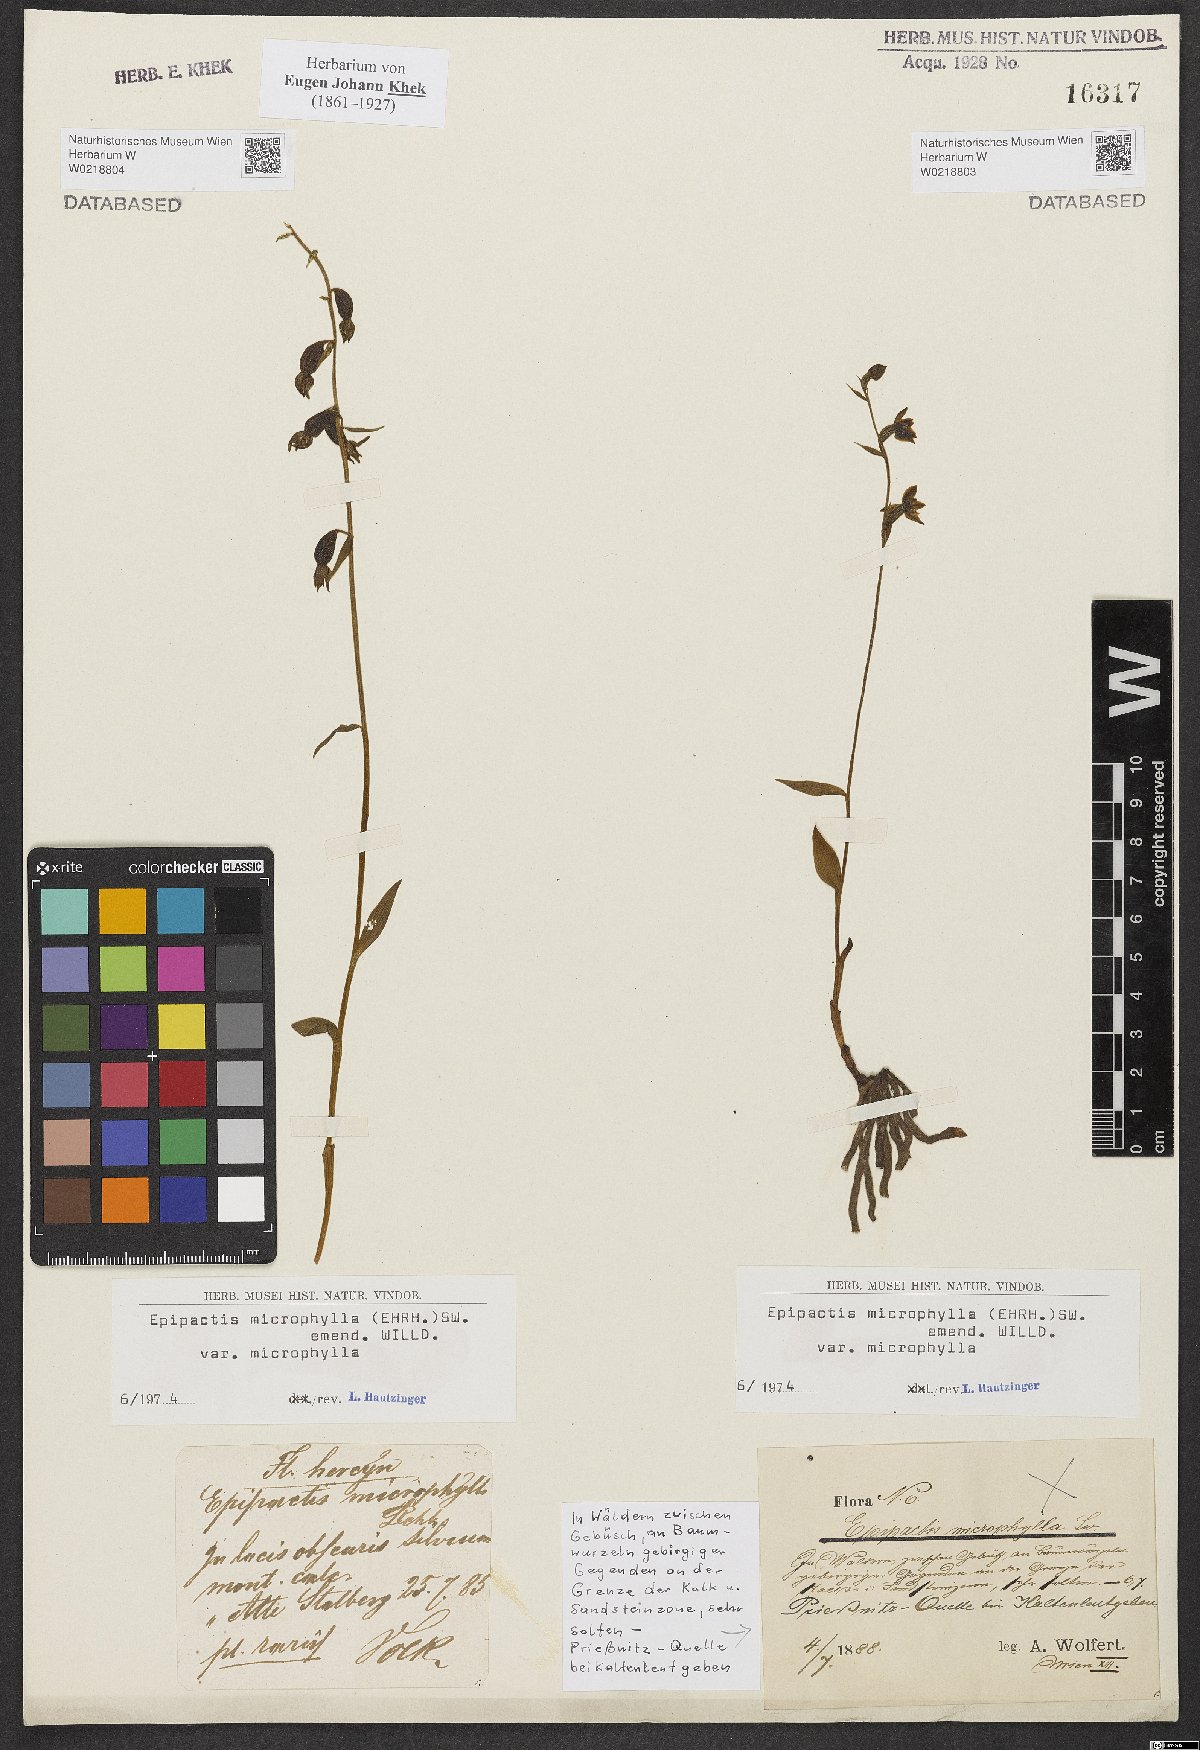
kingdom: Plantae
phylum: Tracheophyta
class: Liliopsida
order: Asparagales
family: Orchidaceae
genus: Epipactis
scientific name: Epipactis microphylla
